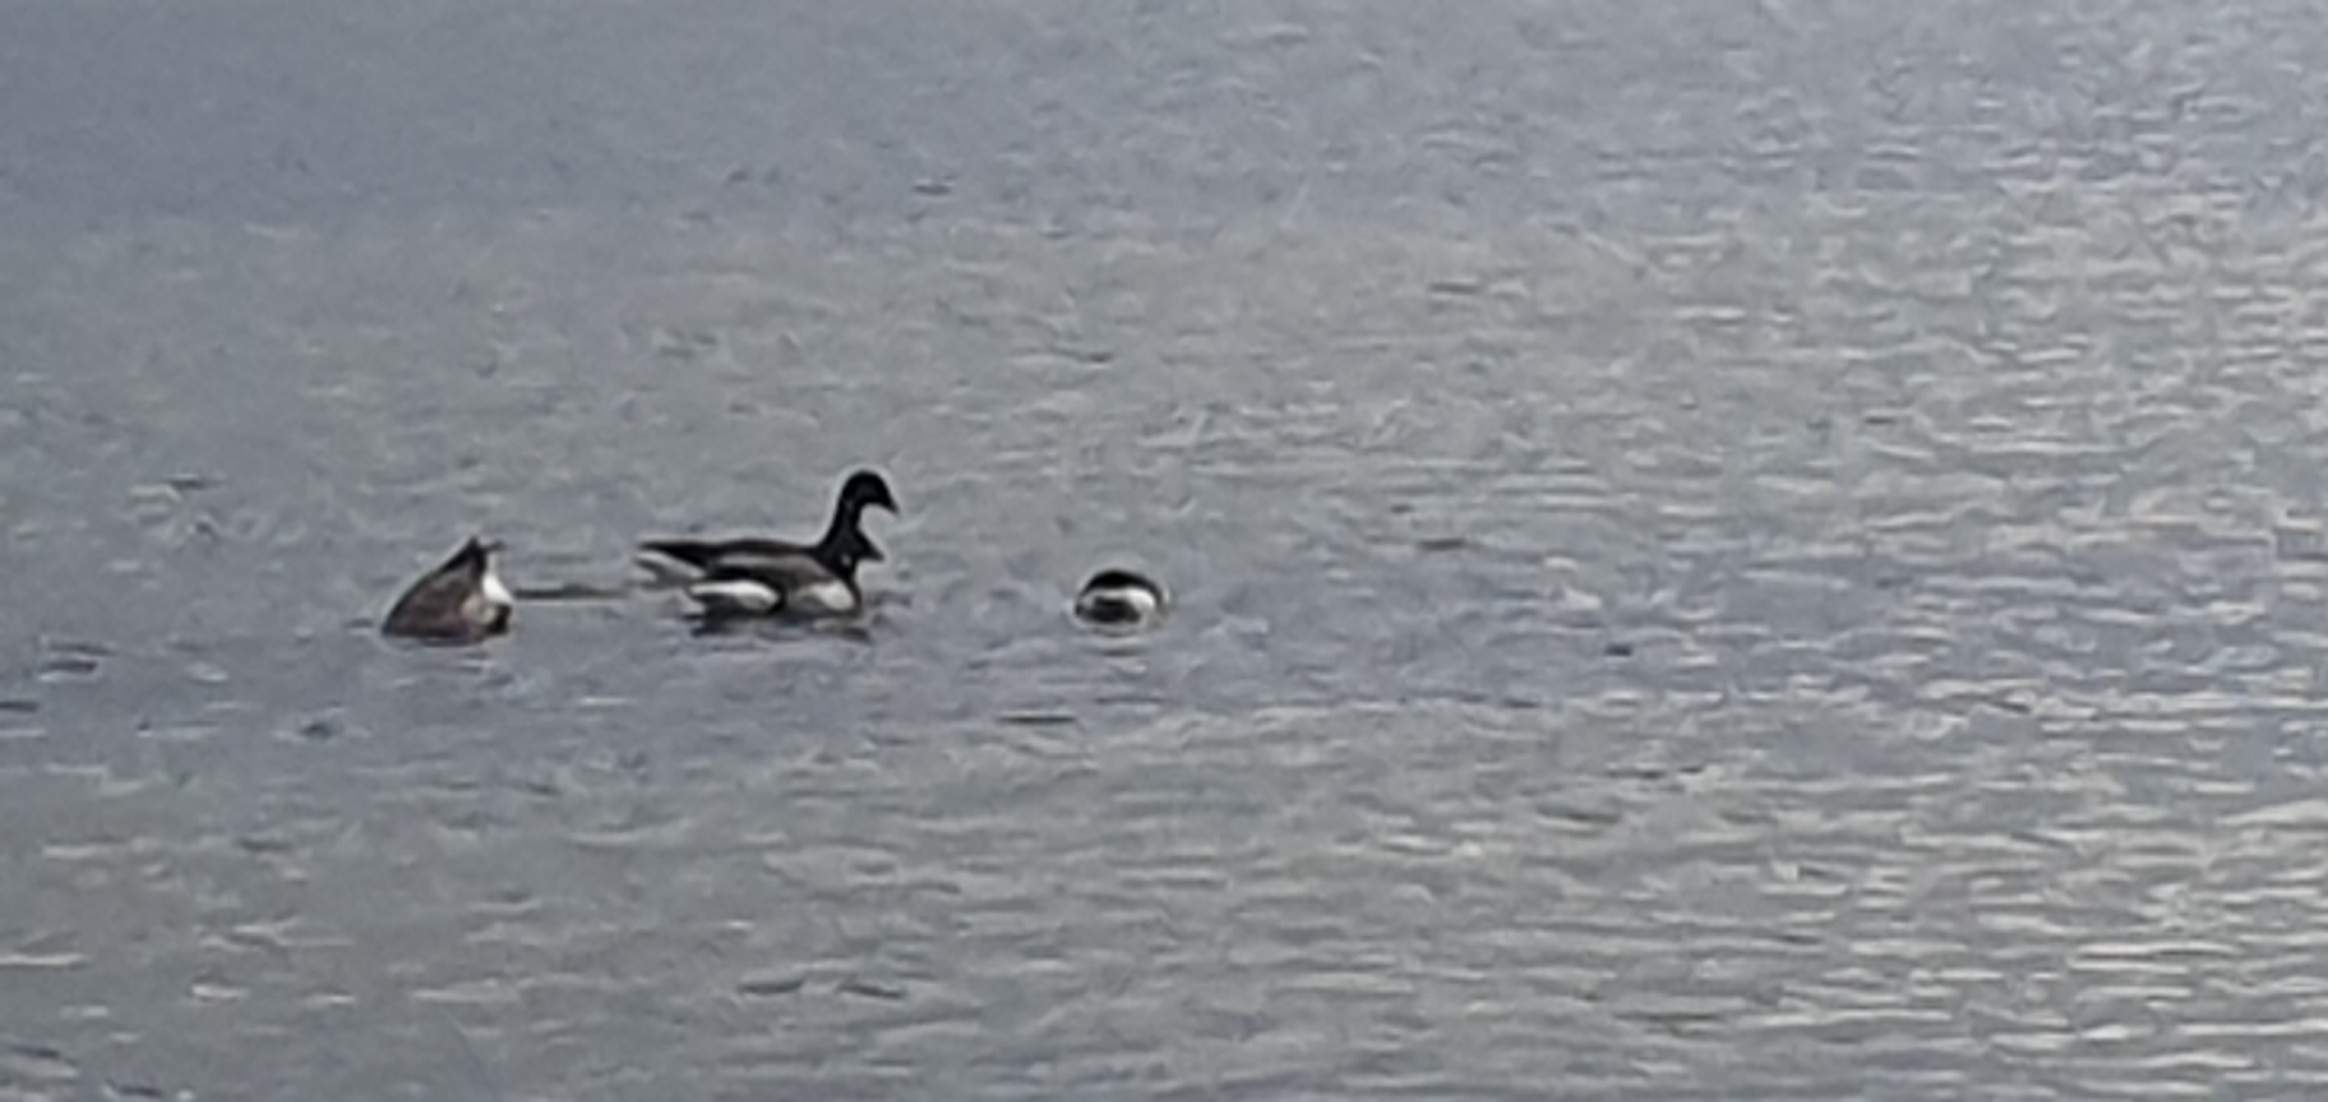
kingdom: Animalia
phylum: Chordata
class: Aves
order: Anseriformes
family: Anatidae
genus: Branta
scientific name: Branta bernicla
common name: Knortegås
